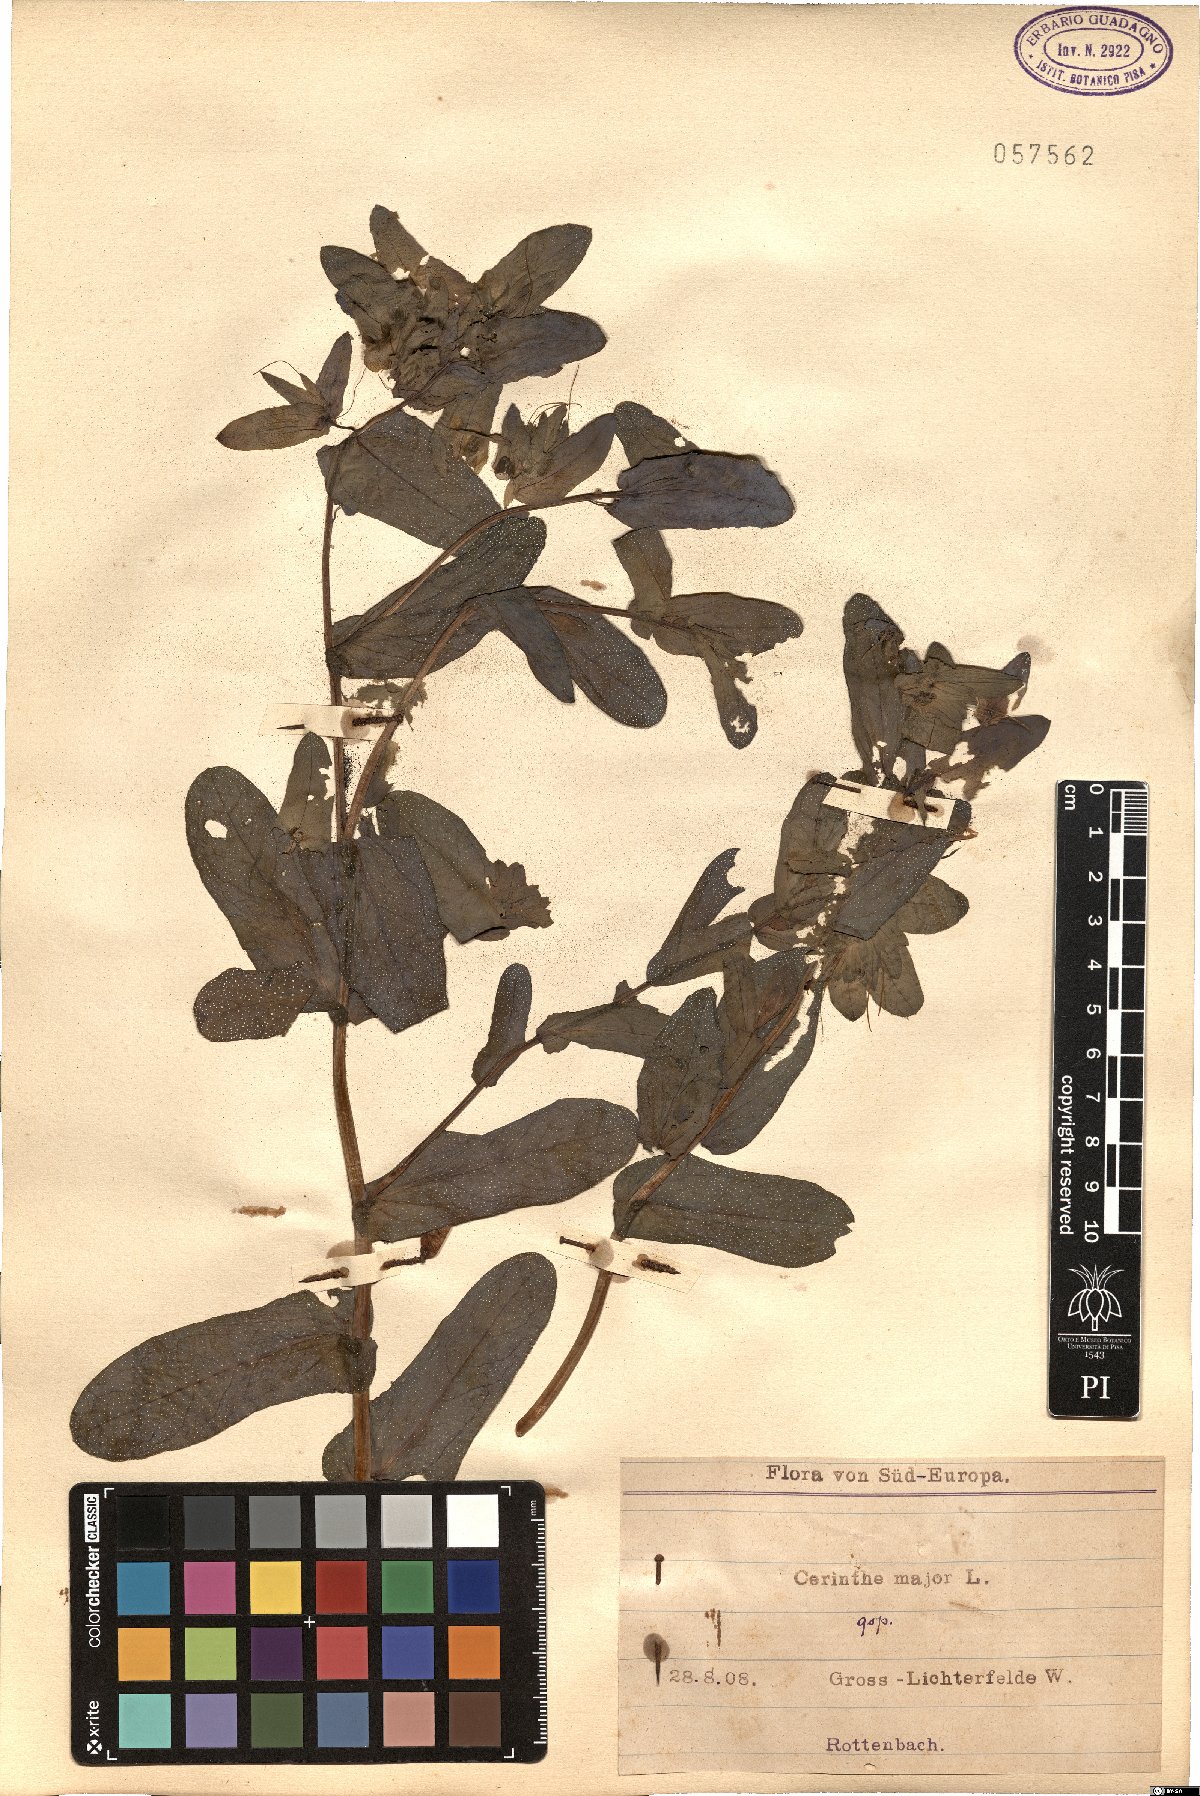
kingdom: Plantae
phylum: Tracheophyta
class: Magnoliopsida
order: Boraginales
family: Boraginaceae
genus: Cerinthe
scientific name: Cerinthe major
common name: Greater honeywort
